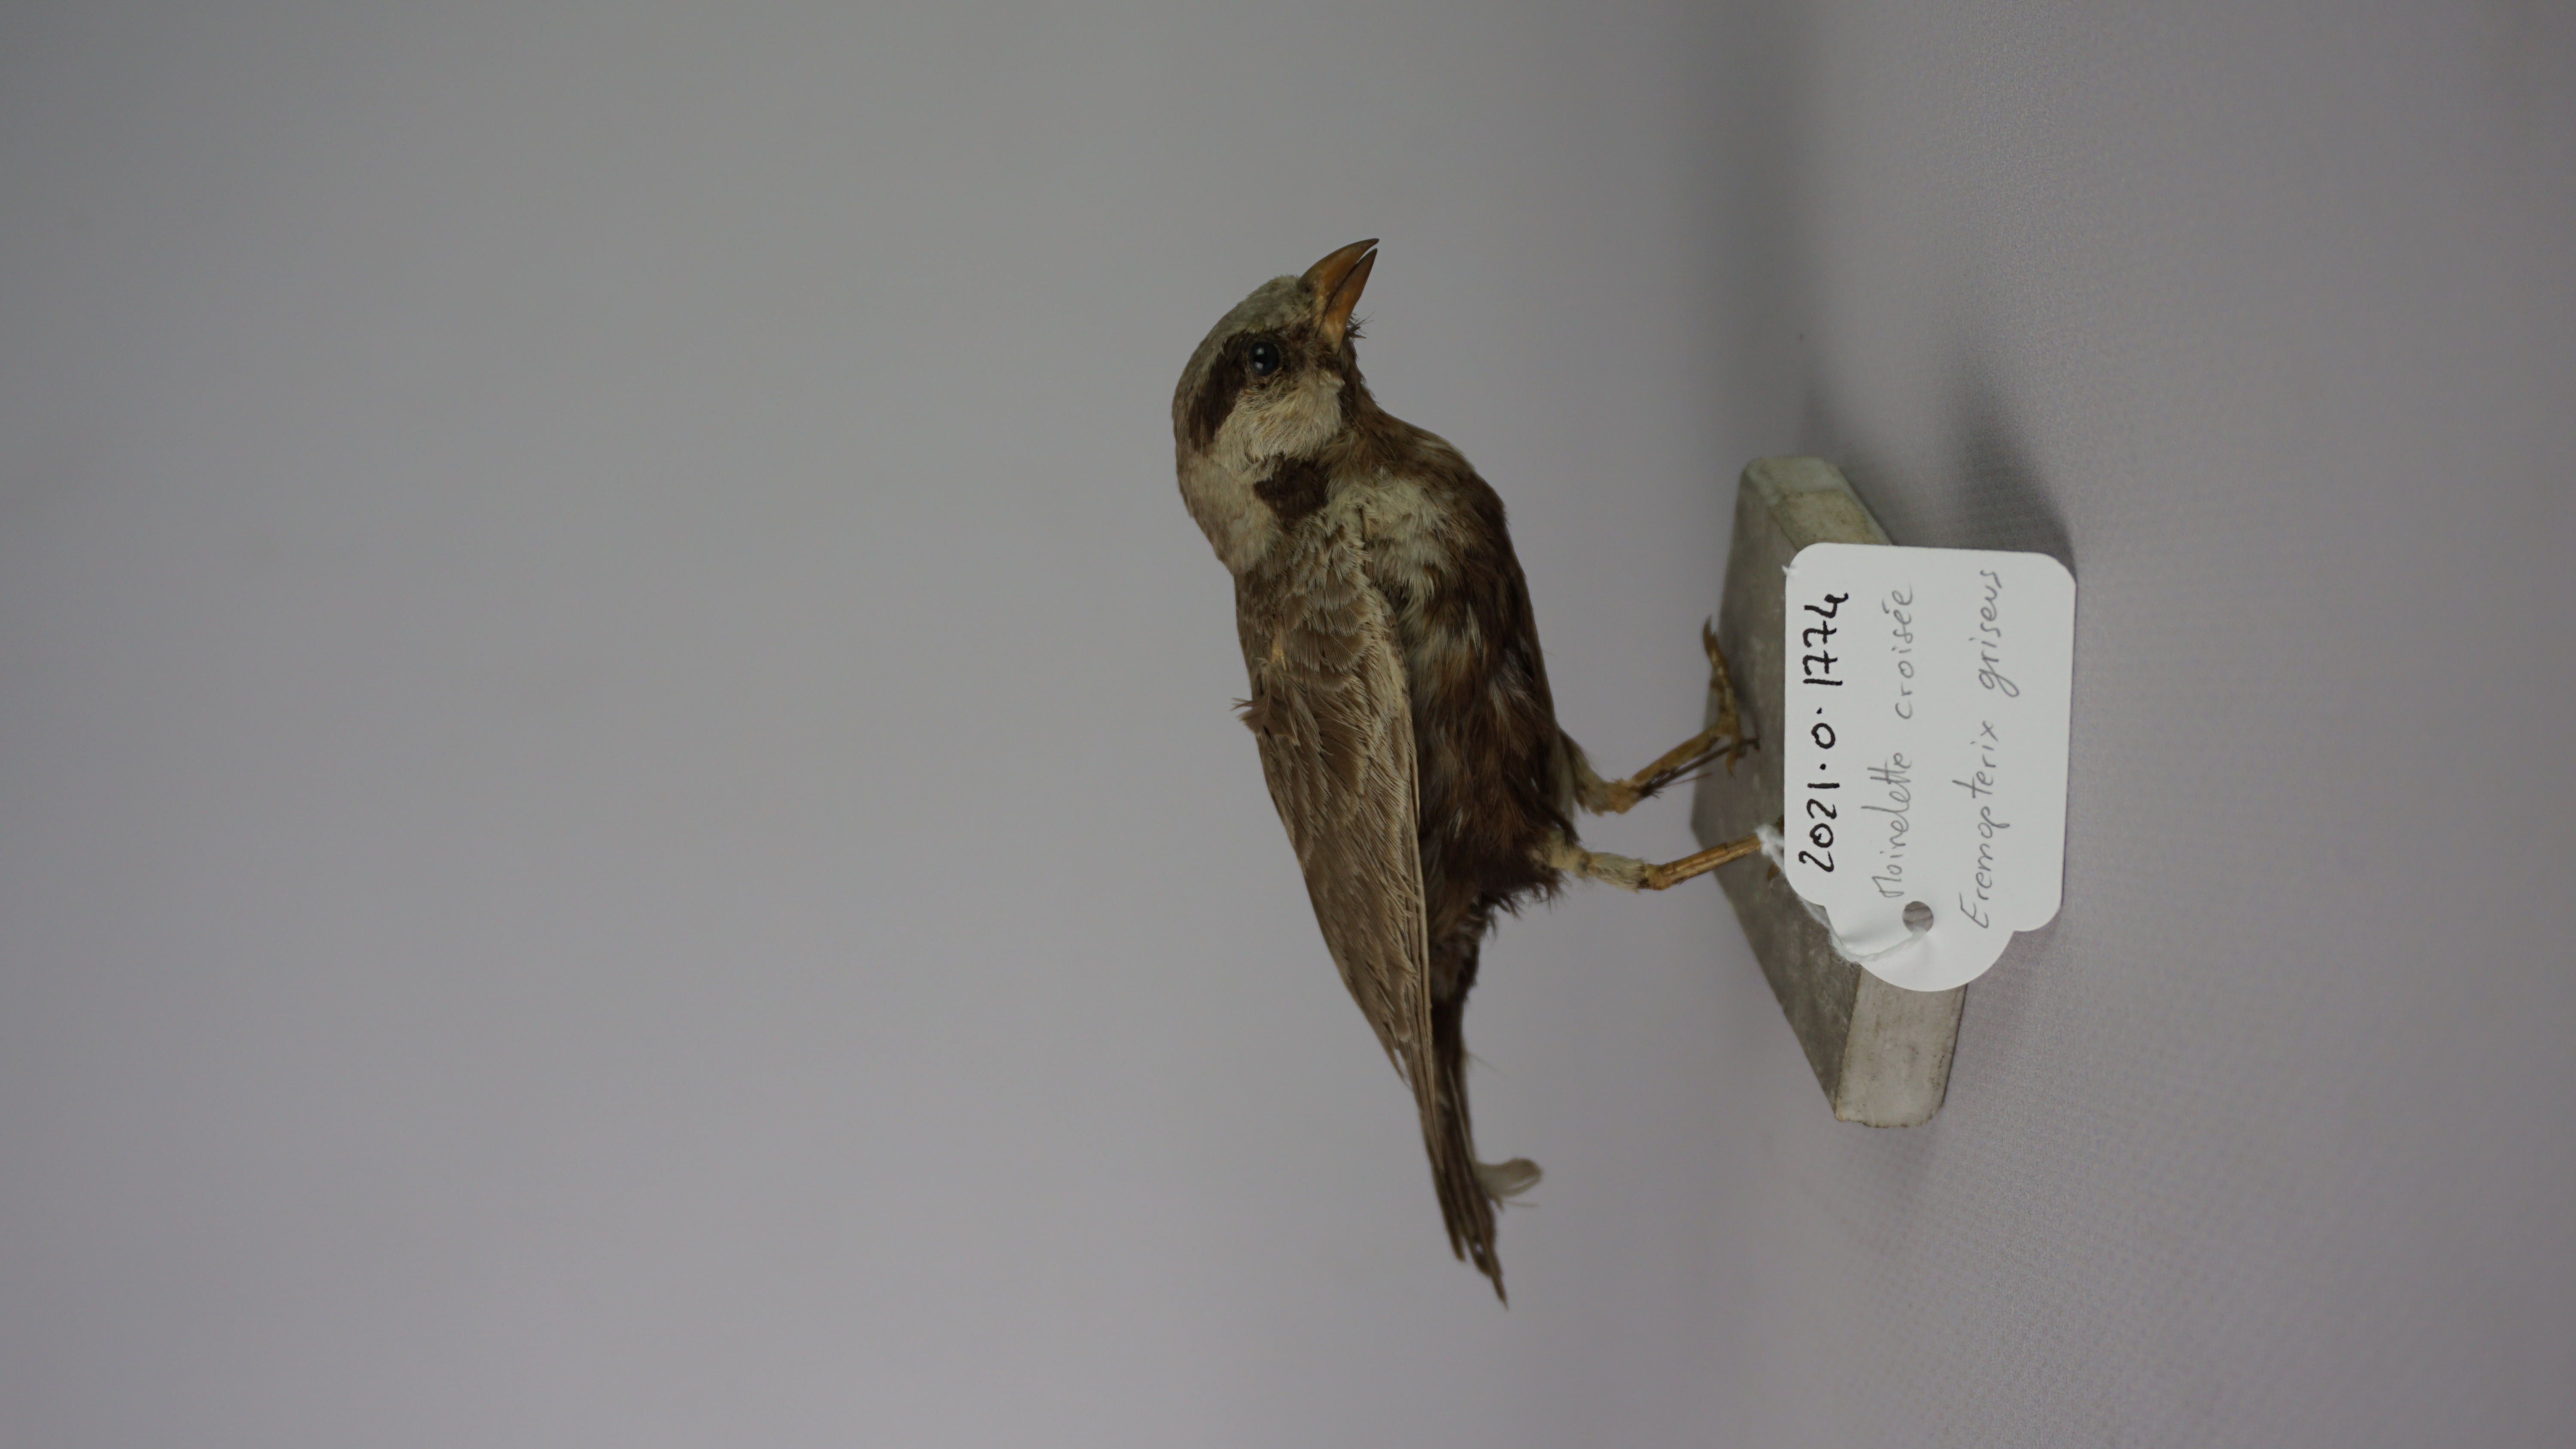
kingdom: Animalia
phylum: Chordata
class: Aves
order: Passeriformes
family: Alaudidae
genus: Eremopterix
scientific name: Eremopterix griseus
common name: Ashy-crowned sparrow-lark
